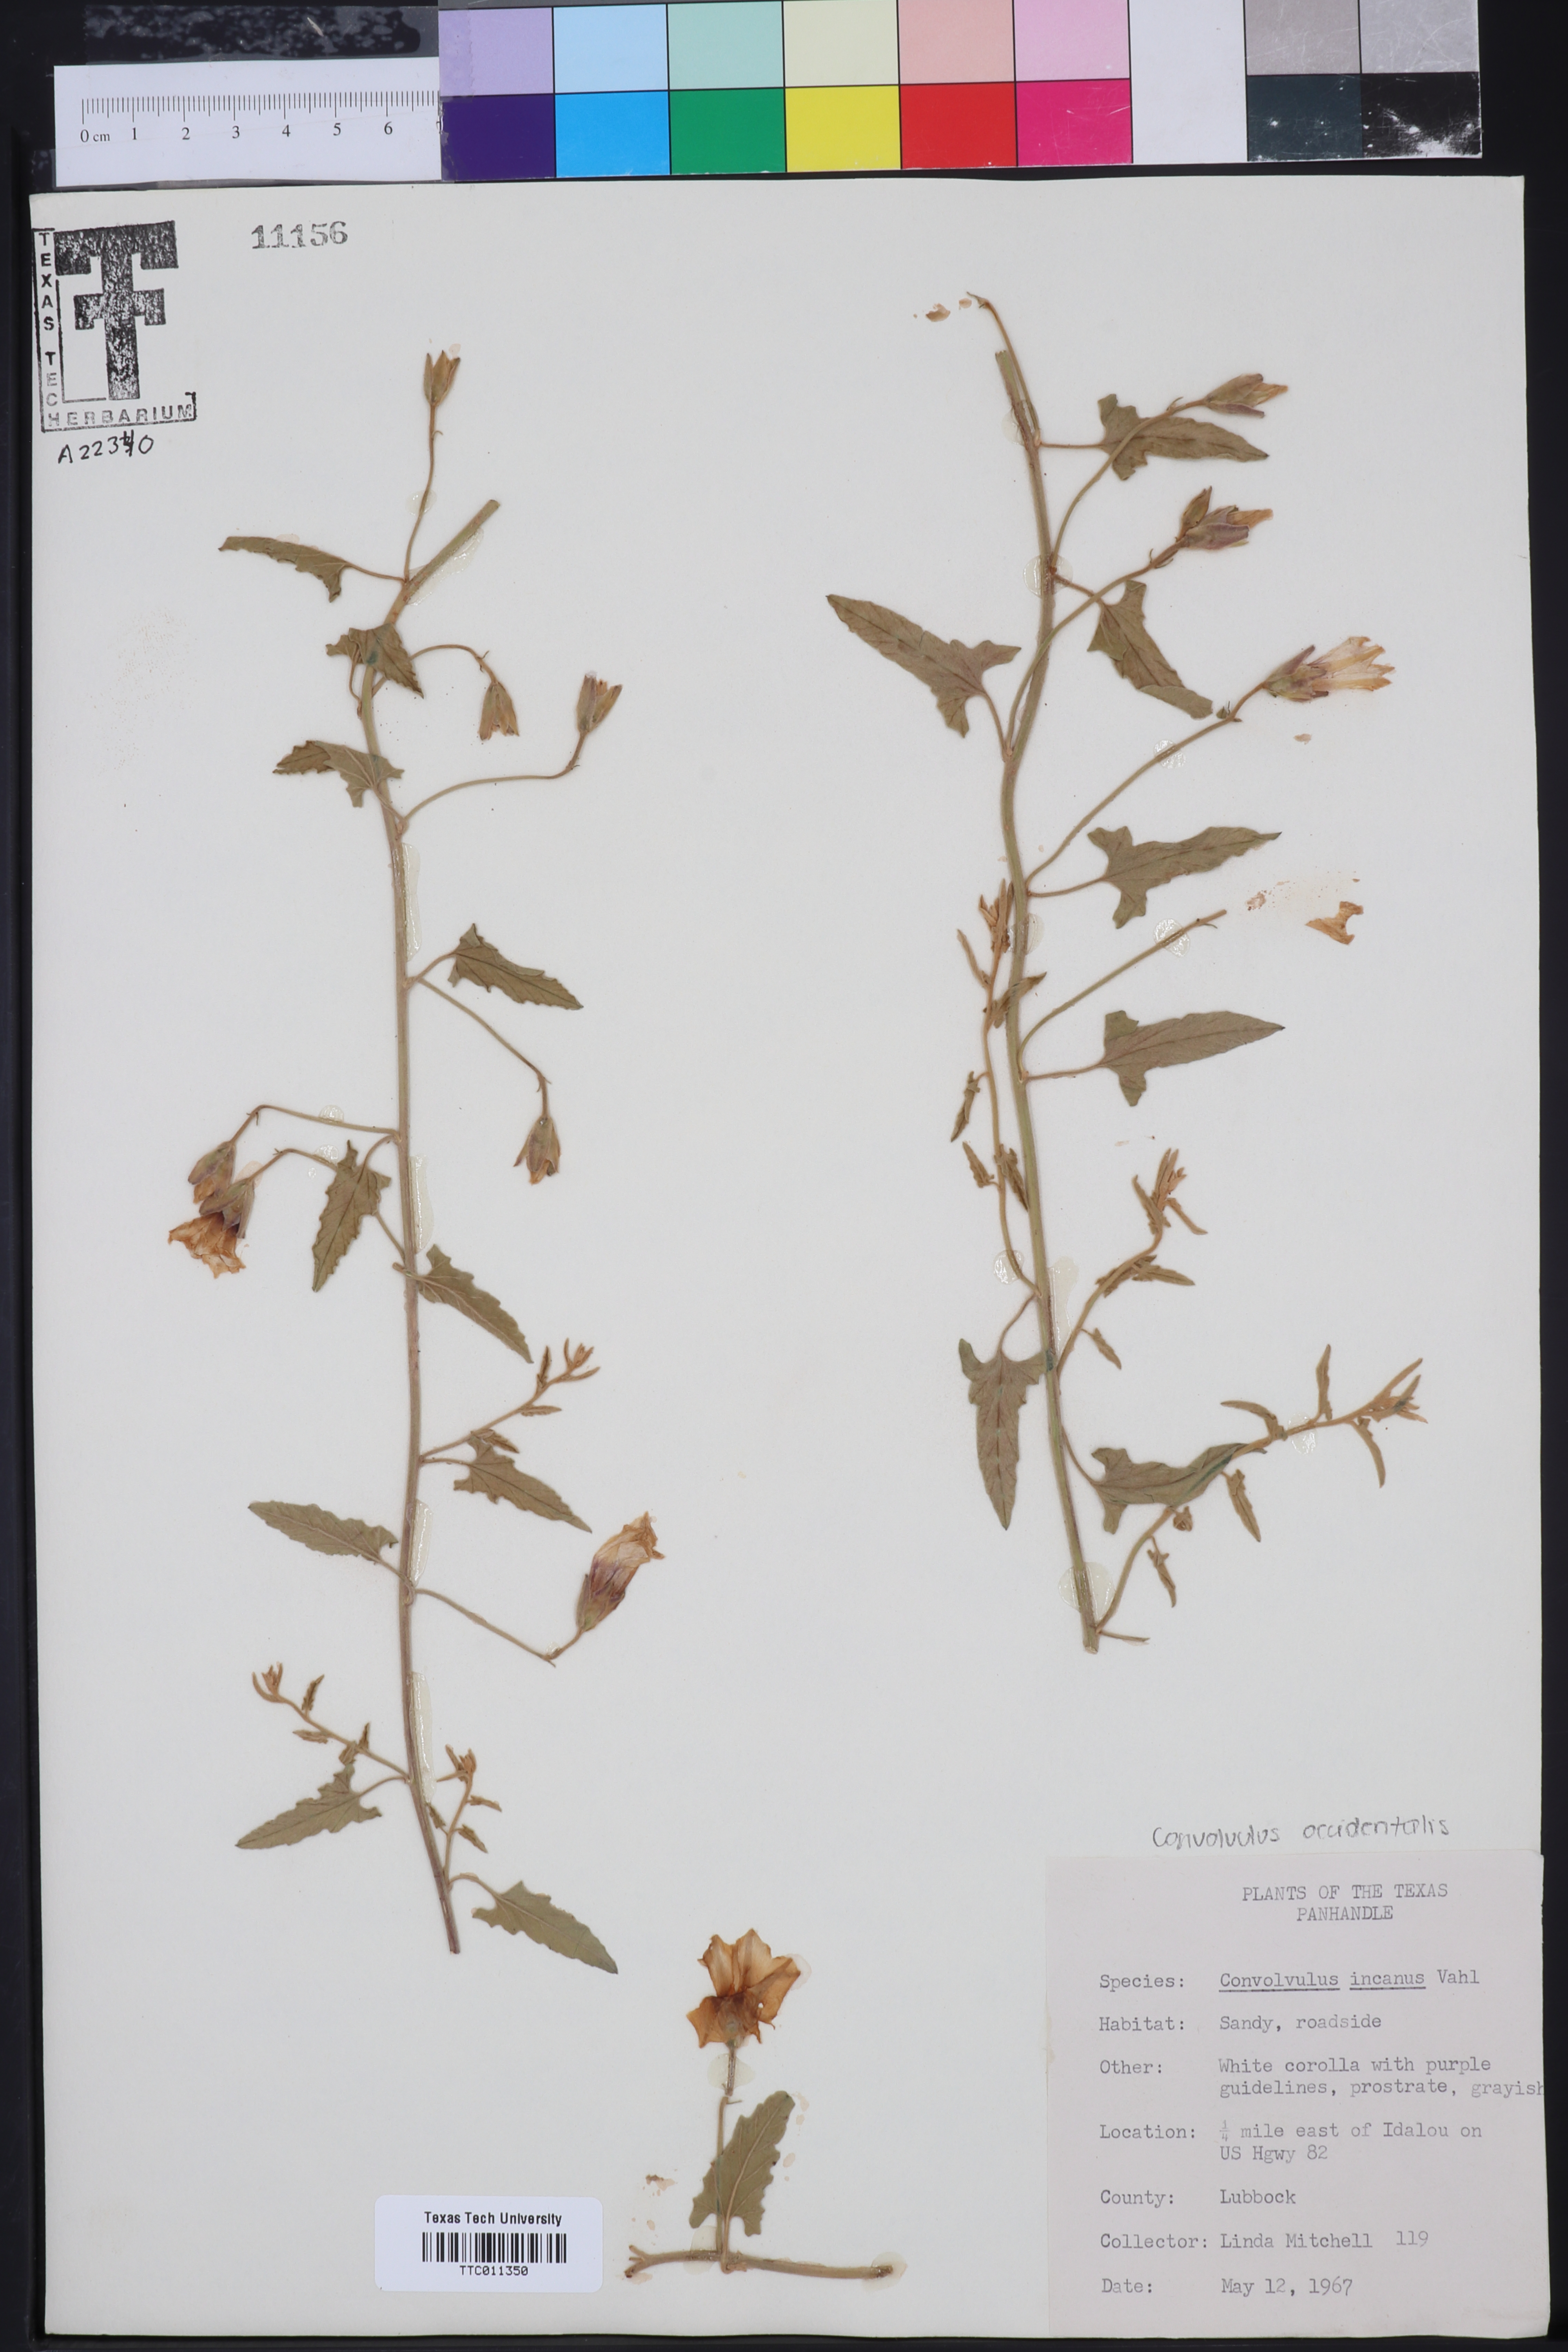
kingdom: Plantae
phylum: Tracheophyta
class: Magnoliopsida
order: Solanales
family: Convolvulaceae
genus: Convolvulus
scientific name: Convolvulus hermanniae
